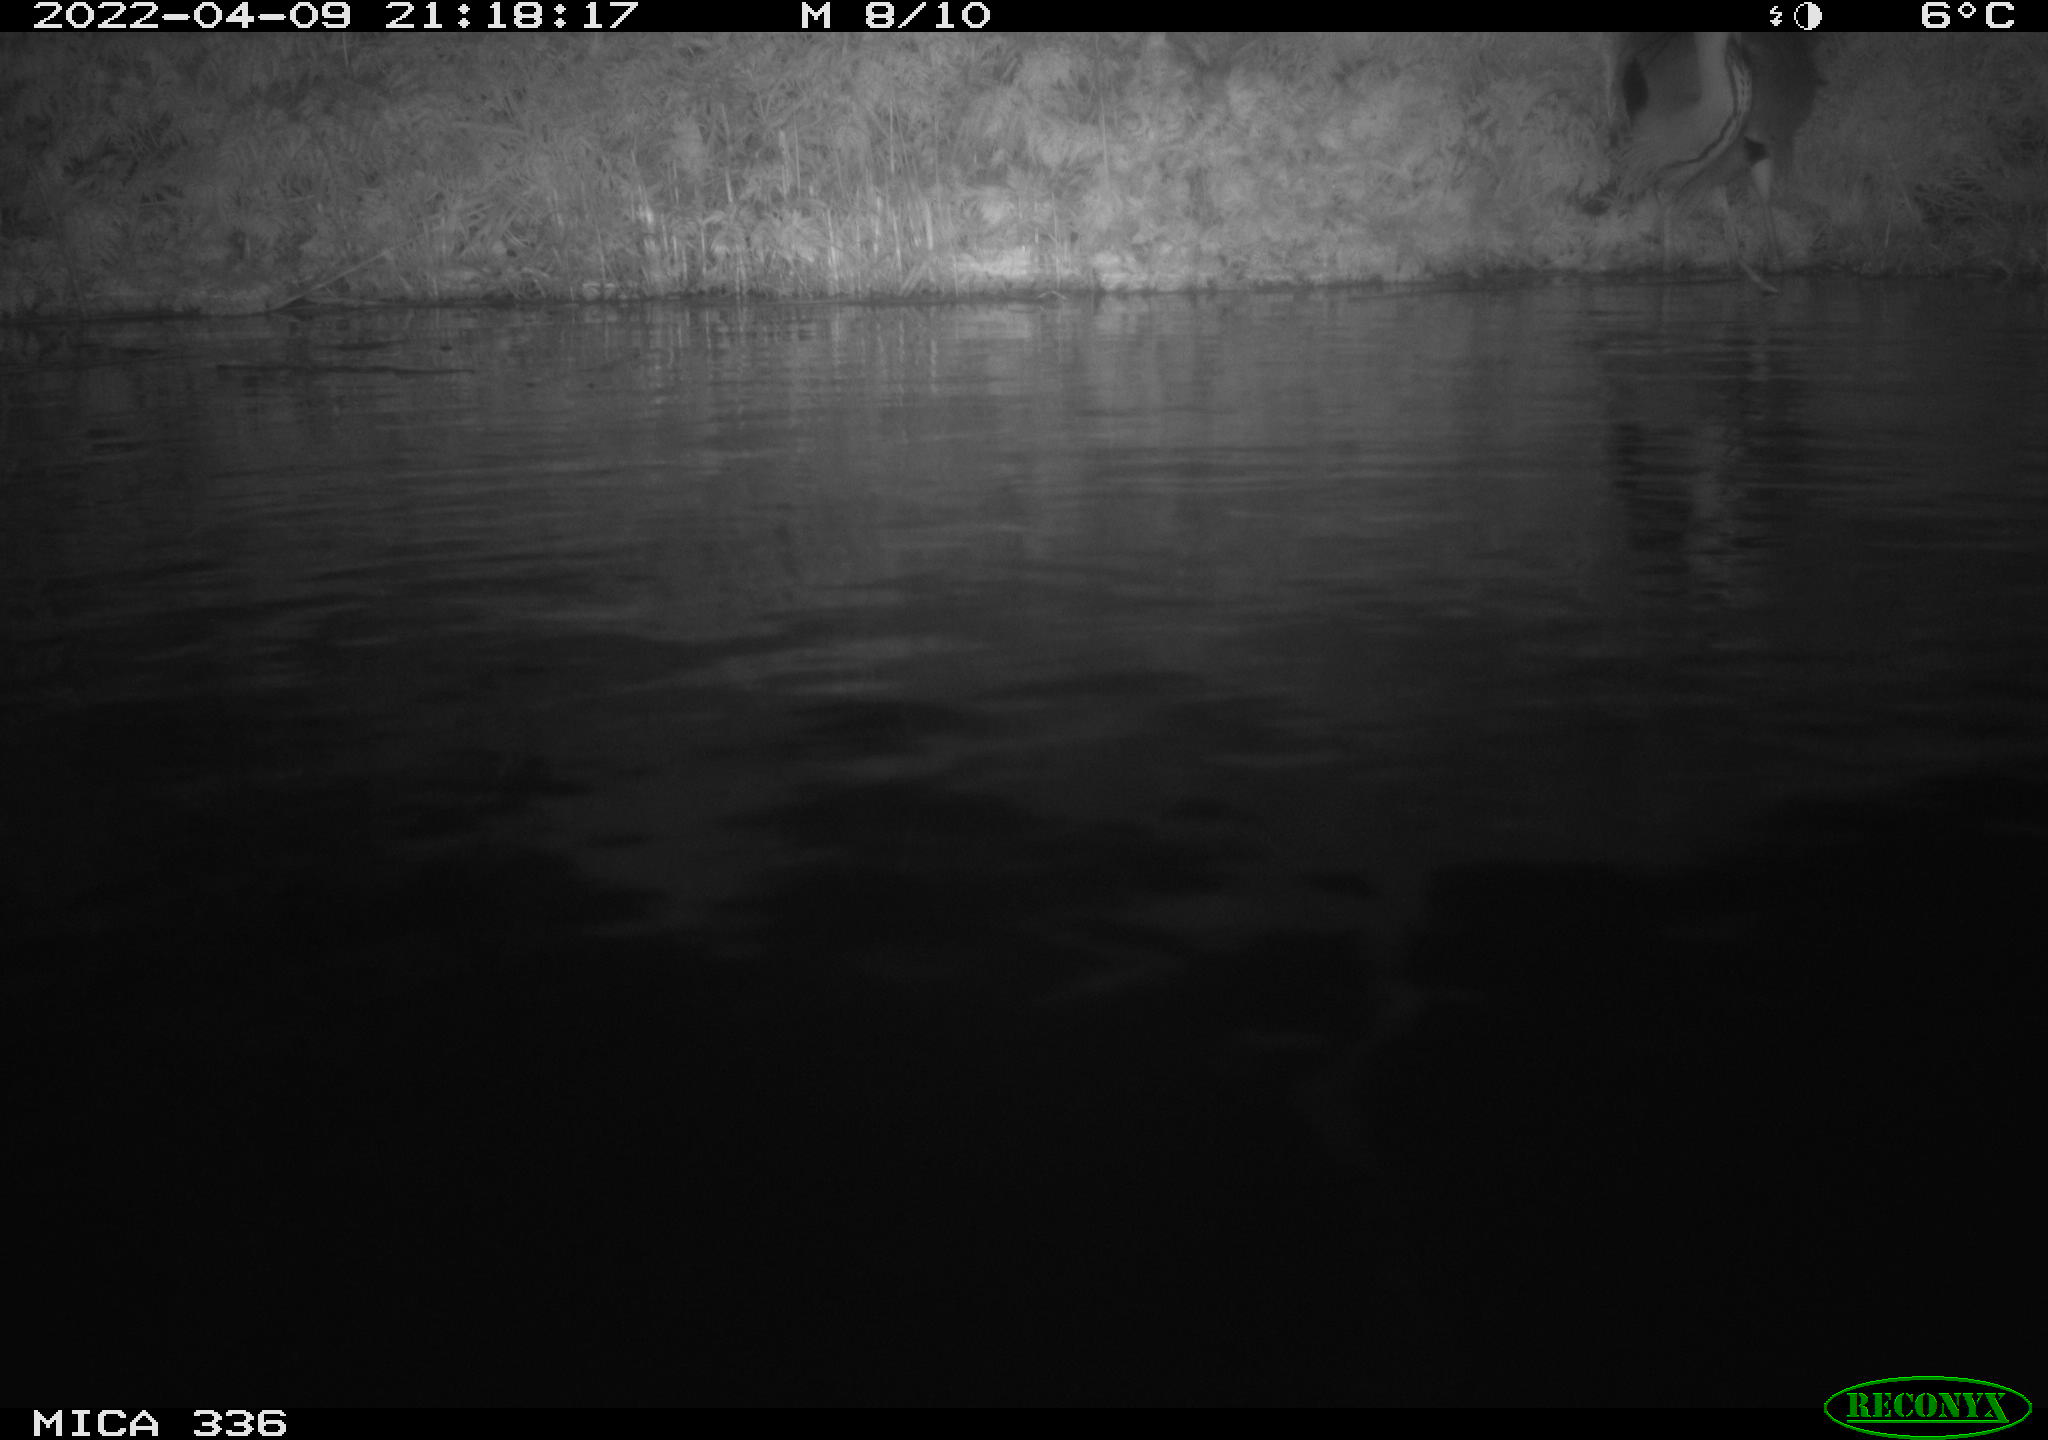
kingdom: Animalia
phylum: Chordata
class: Aves
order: Pelecaniformes
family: Ardeidae
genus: Ardea
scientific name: Ardea cinerea
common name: Grey heron
